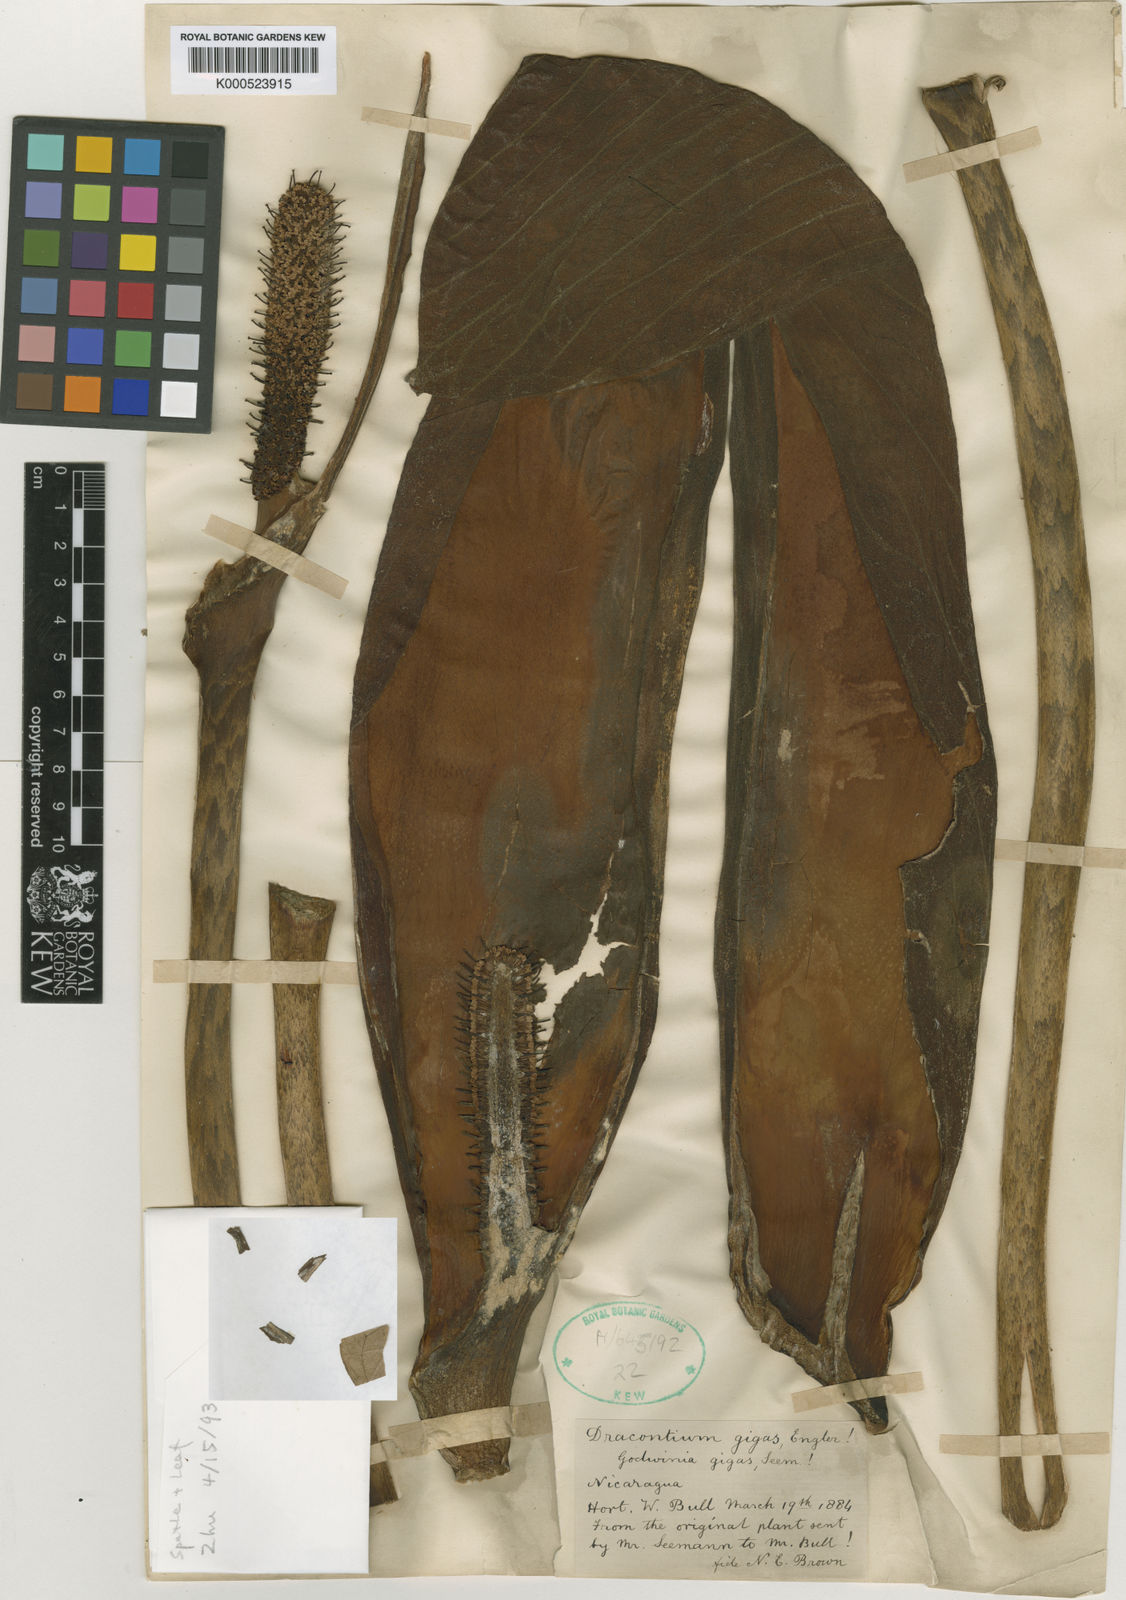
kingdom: Plantae
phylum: Tracheophyta
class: Liliopsida
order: Alismatales
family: Araceae
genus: Dracontium
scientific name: Dracontium gigas
